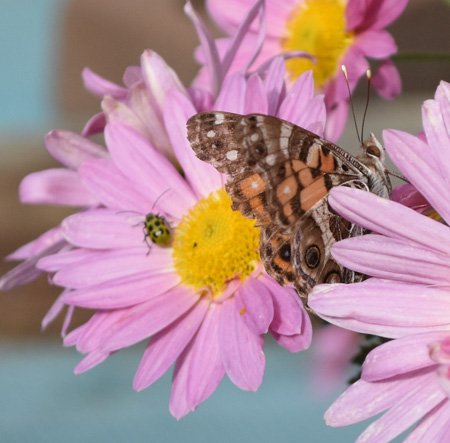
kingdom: Animalia
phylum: Arthropoda
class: Insecta
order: Lepidoptera
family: Nymphalidae
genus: Vanessa
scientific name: Vanessa virginiensis
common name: American Lady
